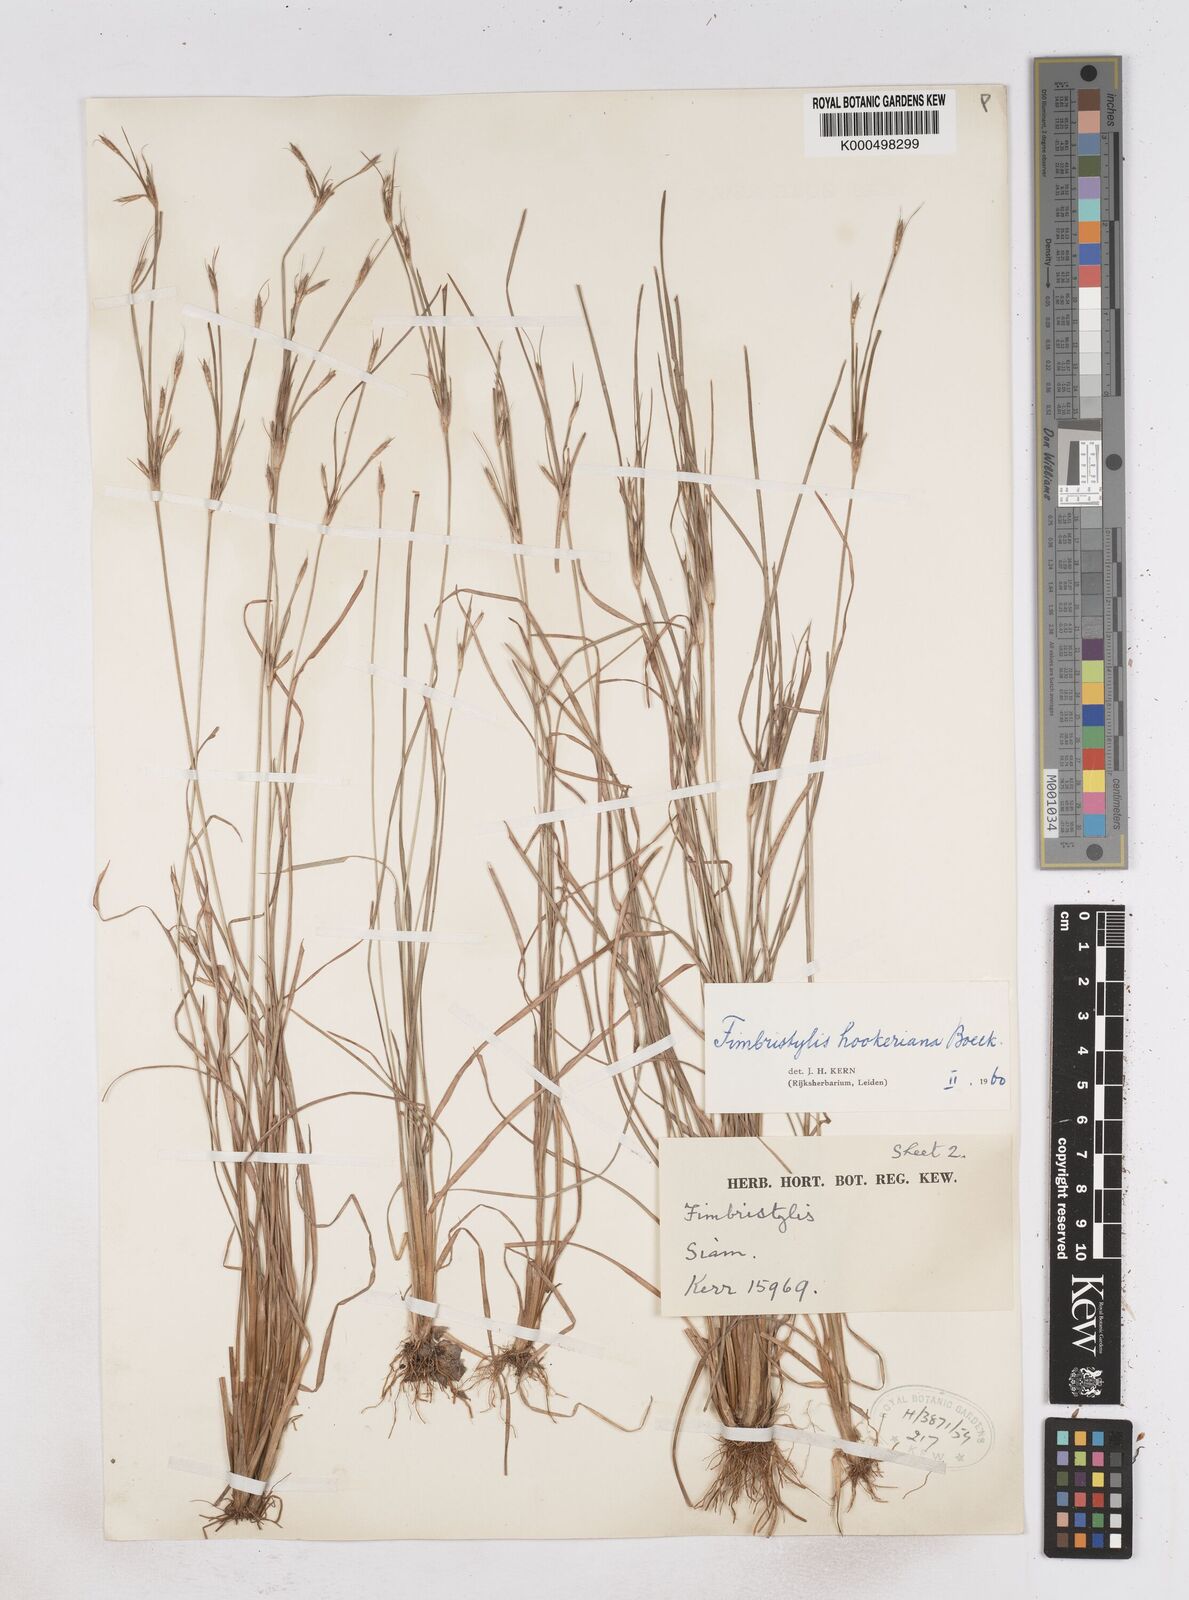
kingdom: Plantae
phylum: Tracheophyta
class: Liliopsida
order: Poales
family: Cyperaceae
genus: Fimbristylis
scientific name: Fimbristylis hookeriana
